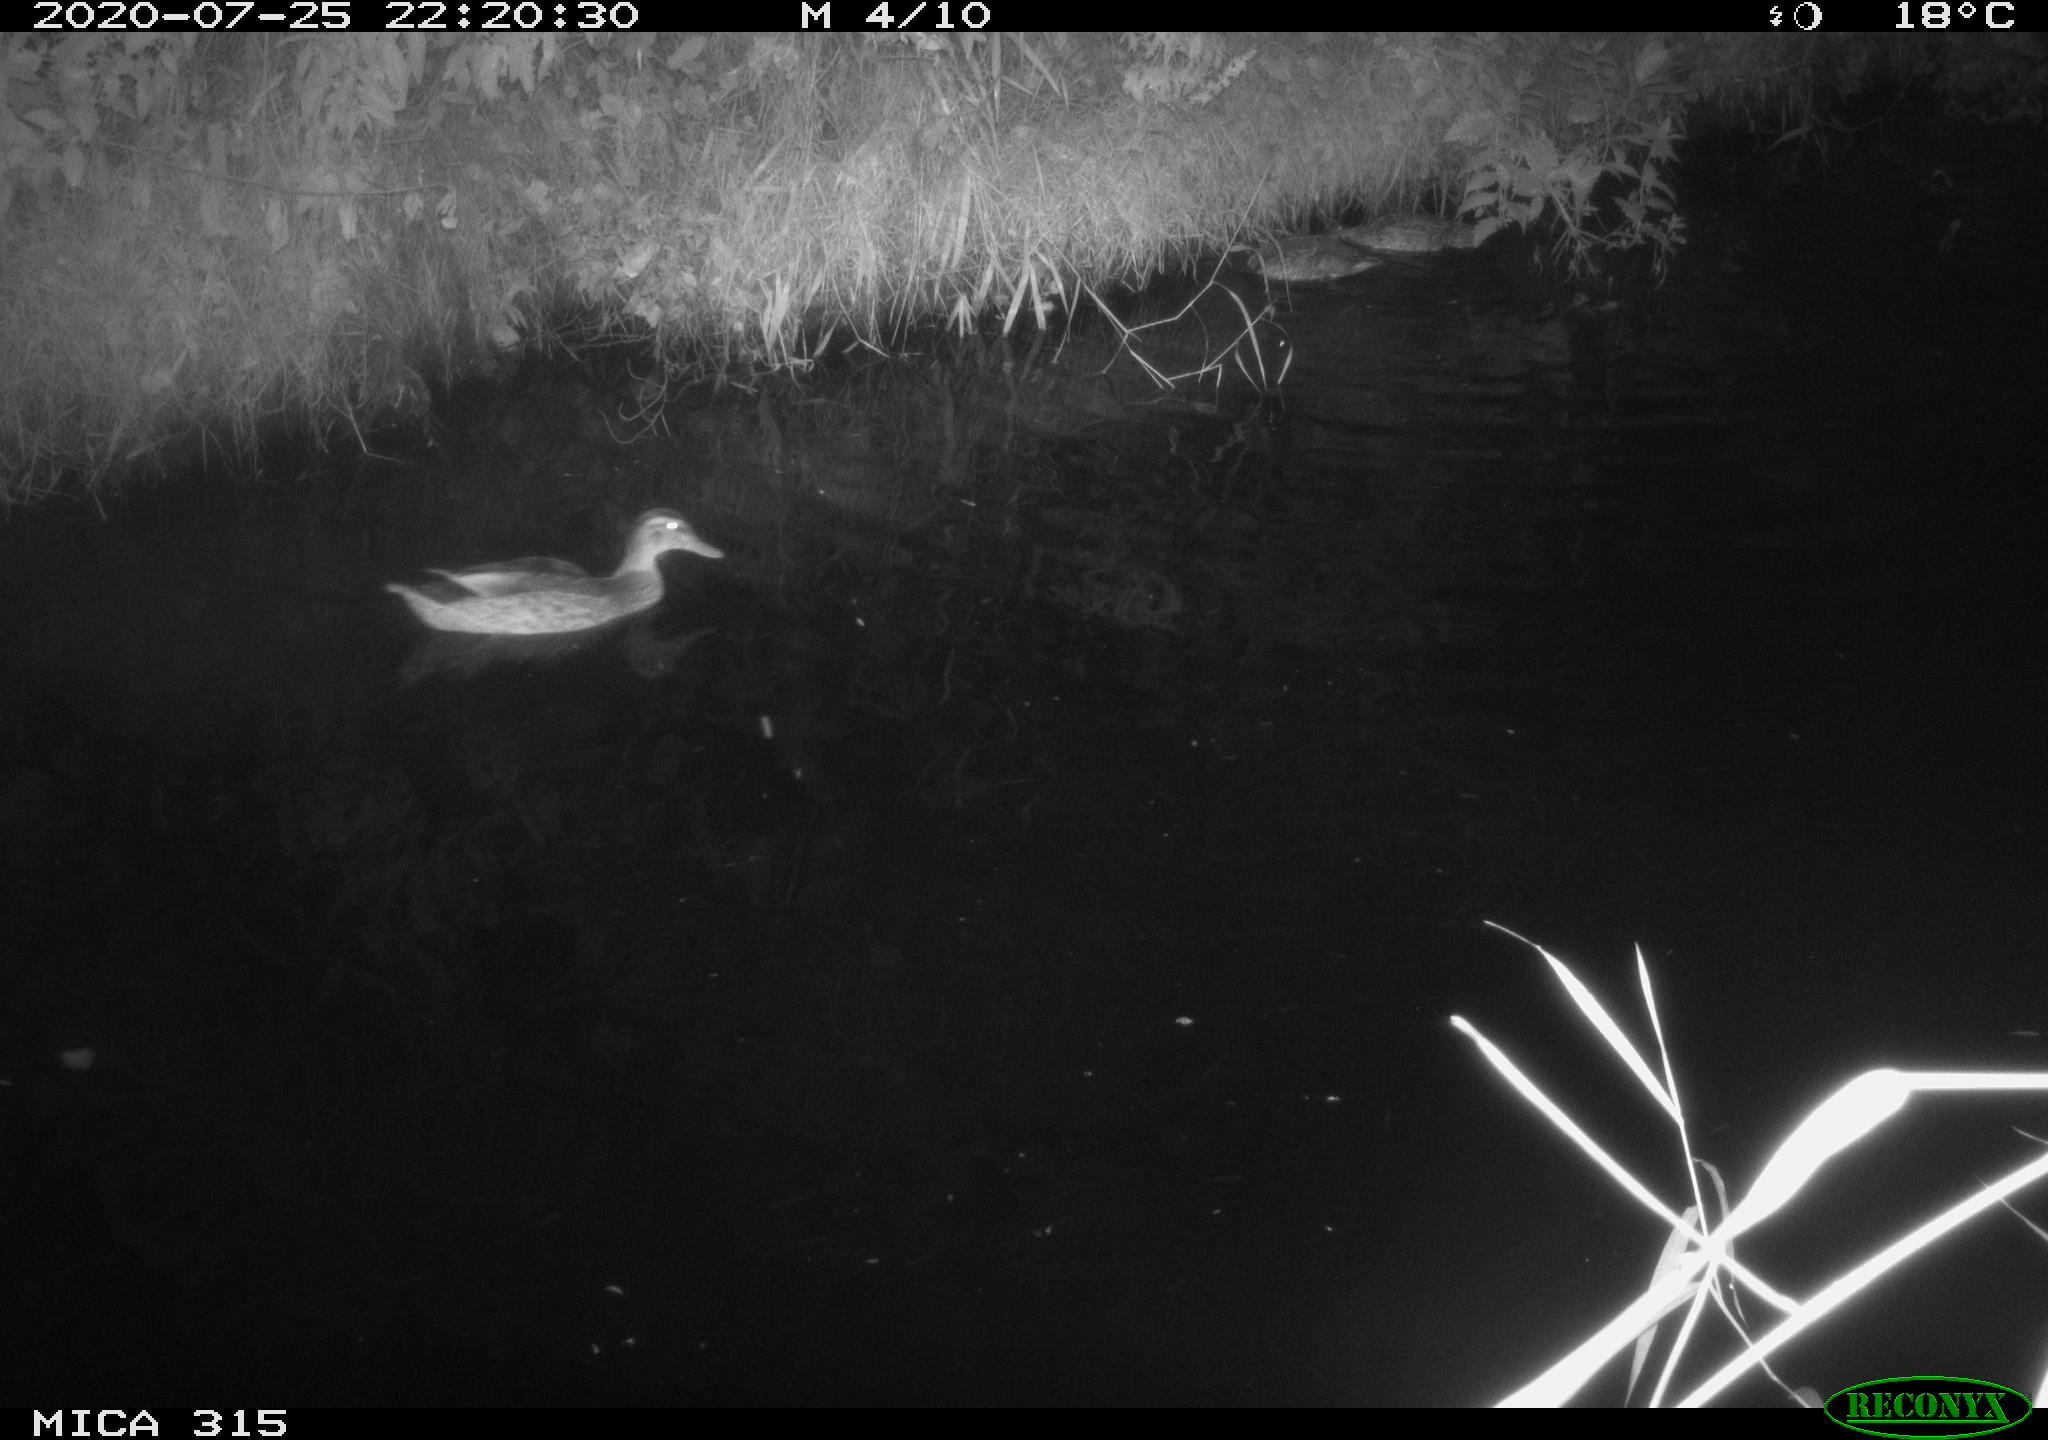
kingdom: Animalia
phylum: Chordata
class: Aves
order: Anseriformes
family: Anatidae
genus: Anas
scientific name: Anas platyrhynchos
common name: Mallard
